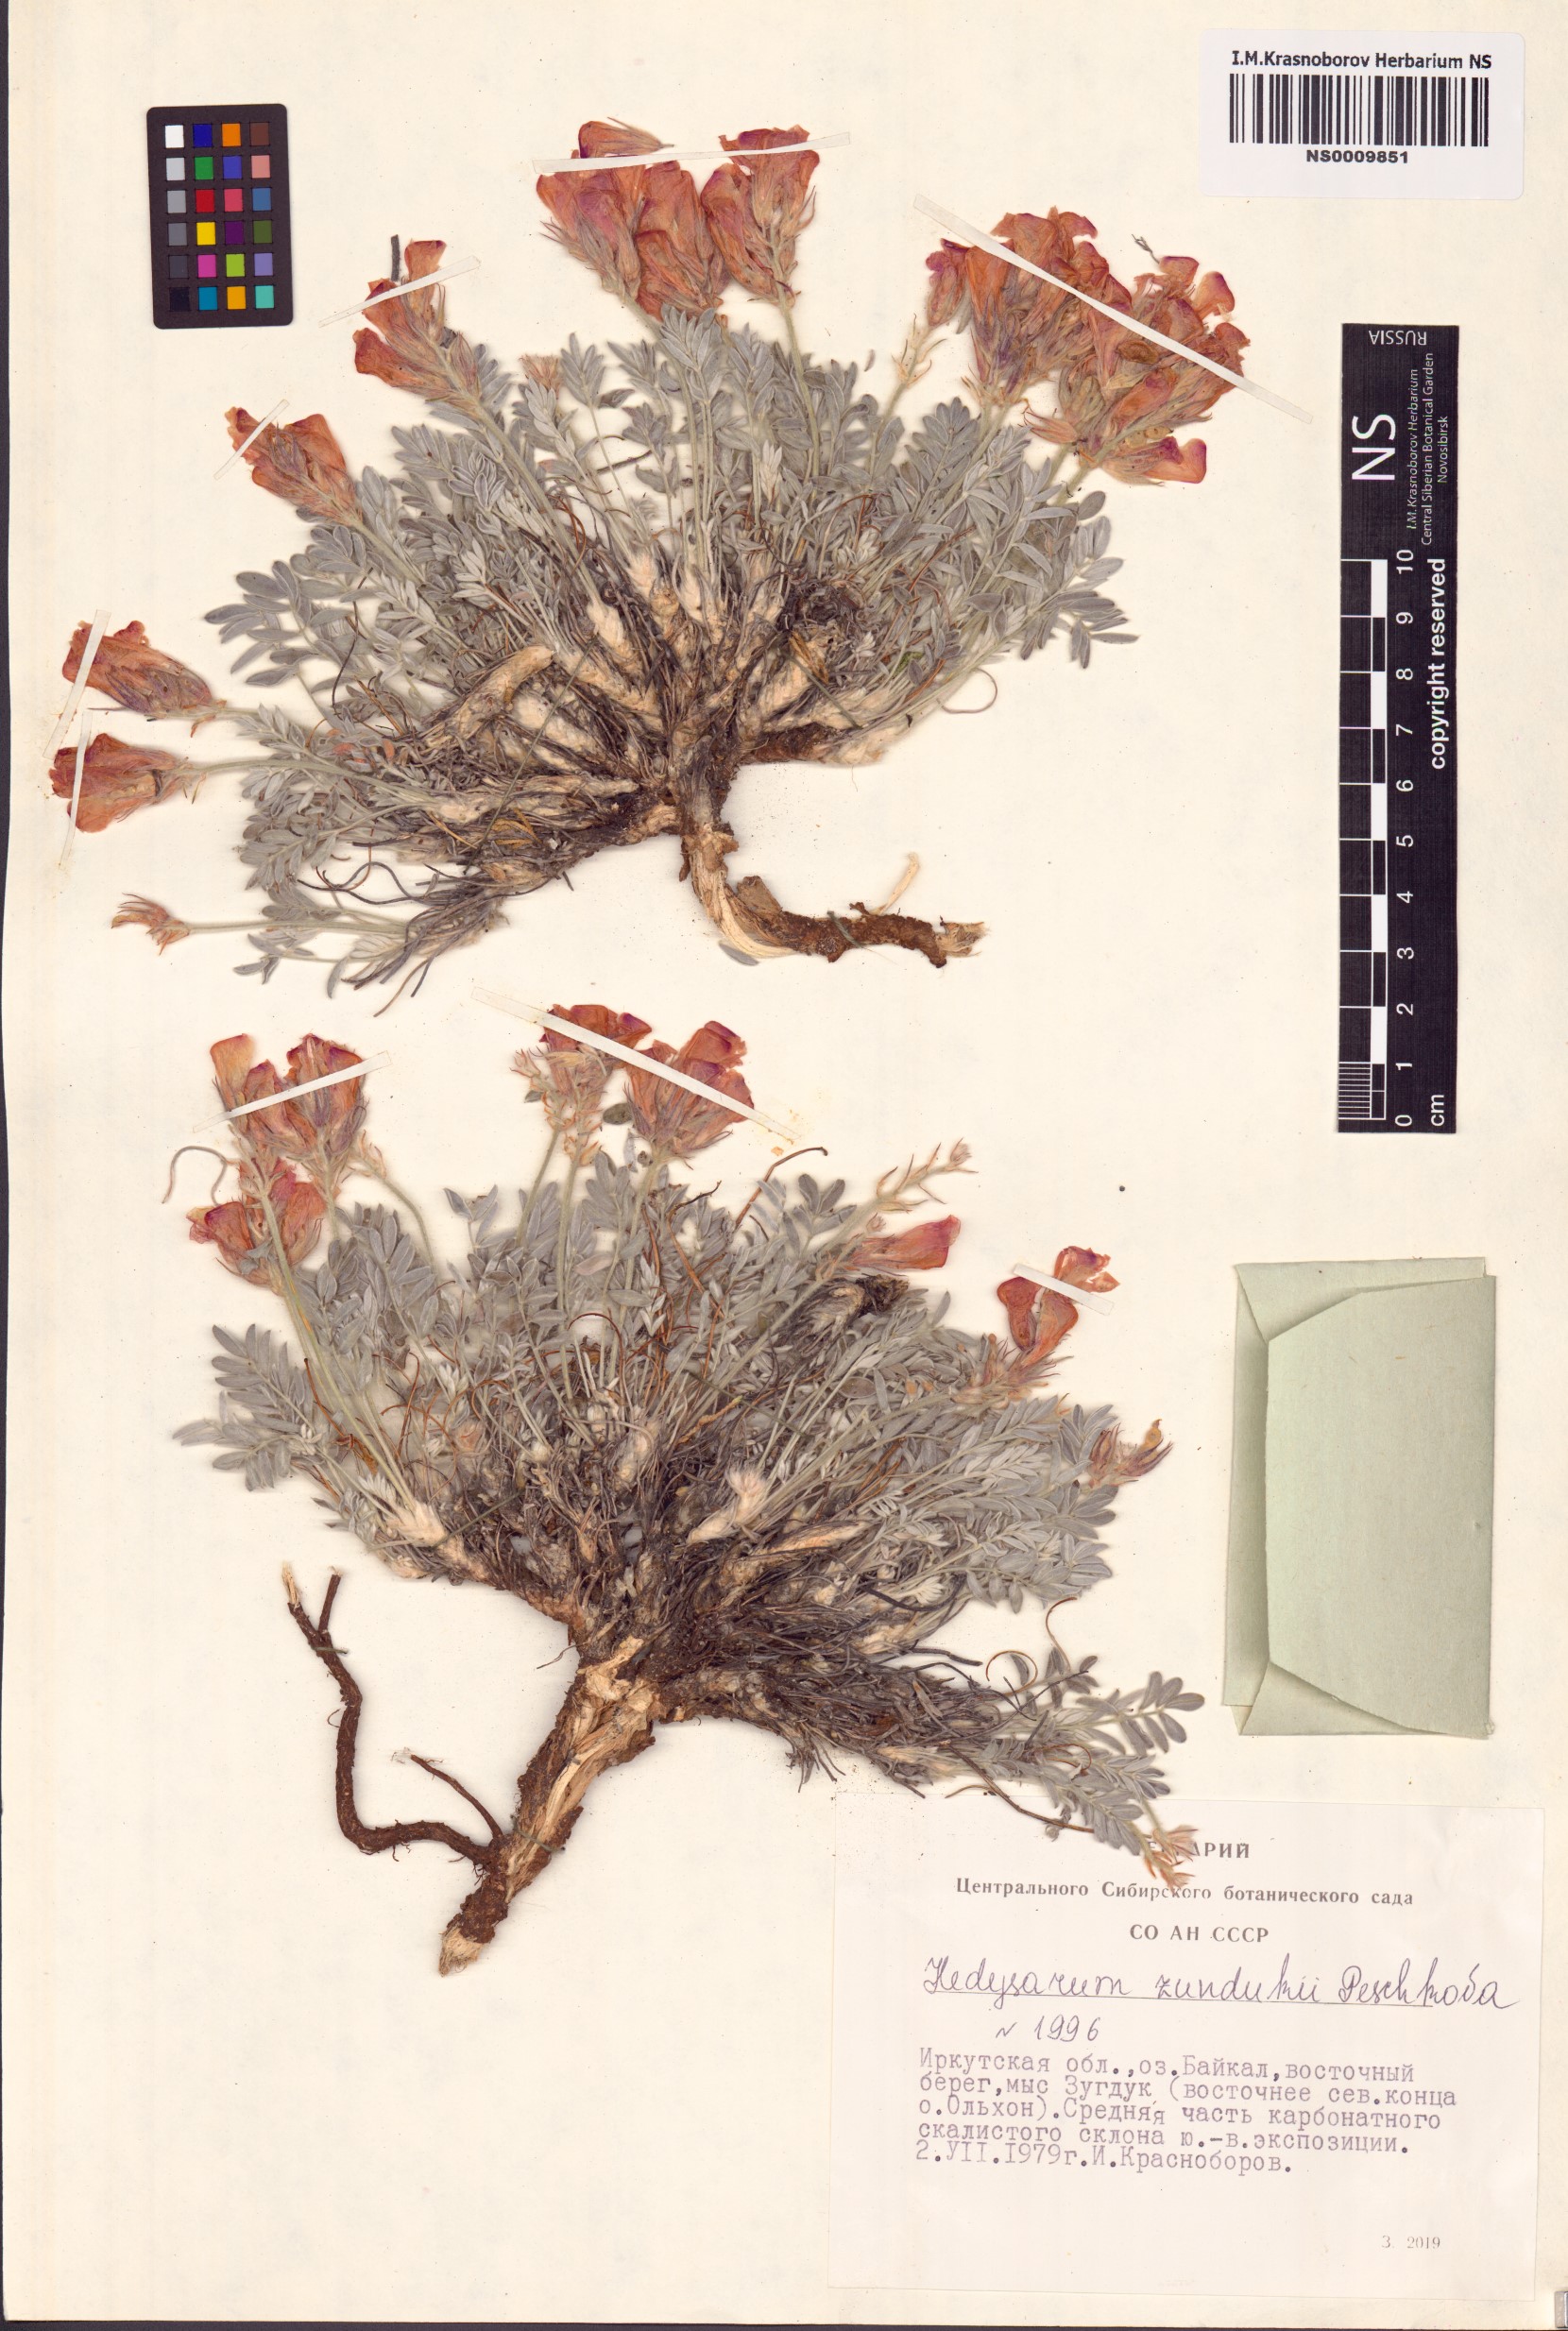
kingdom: Plantae
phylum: Tracheophyta
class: Magnoliopsida
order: Fabales
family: Fabaceae
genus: Hedysarum
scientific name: Hedysarum zundukii
